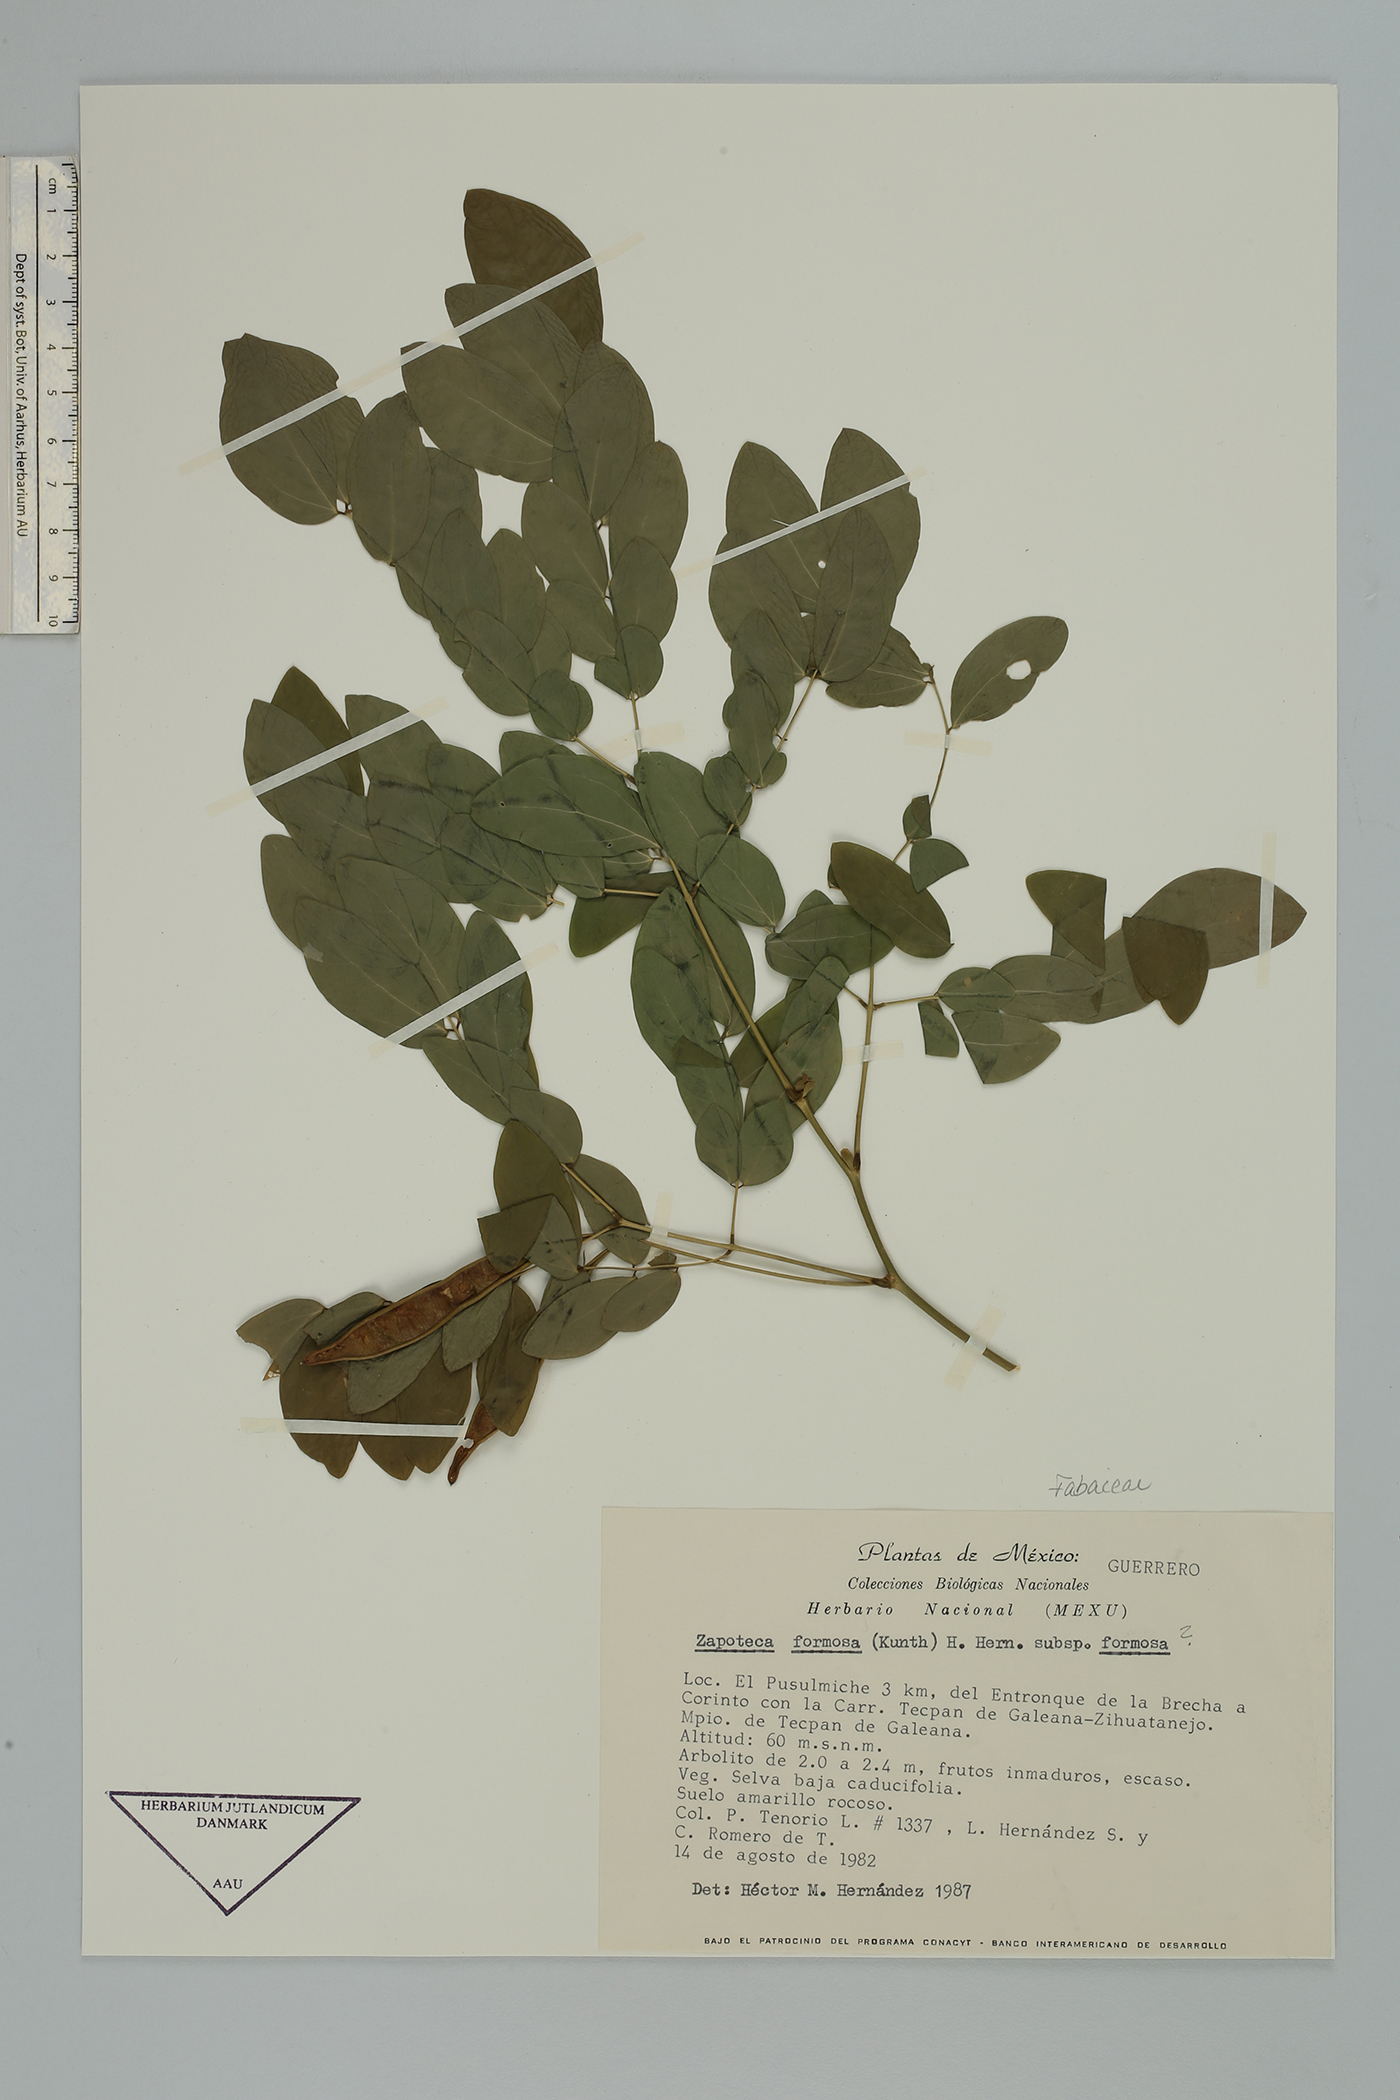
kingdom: Plantae
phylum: Tracheophyta
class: Magnoliopsida
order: Fabales
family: Fabaceae
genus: Zapoteca
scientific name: Zapoteca formosa
